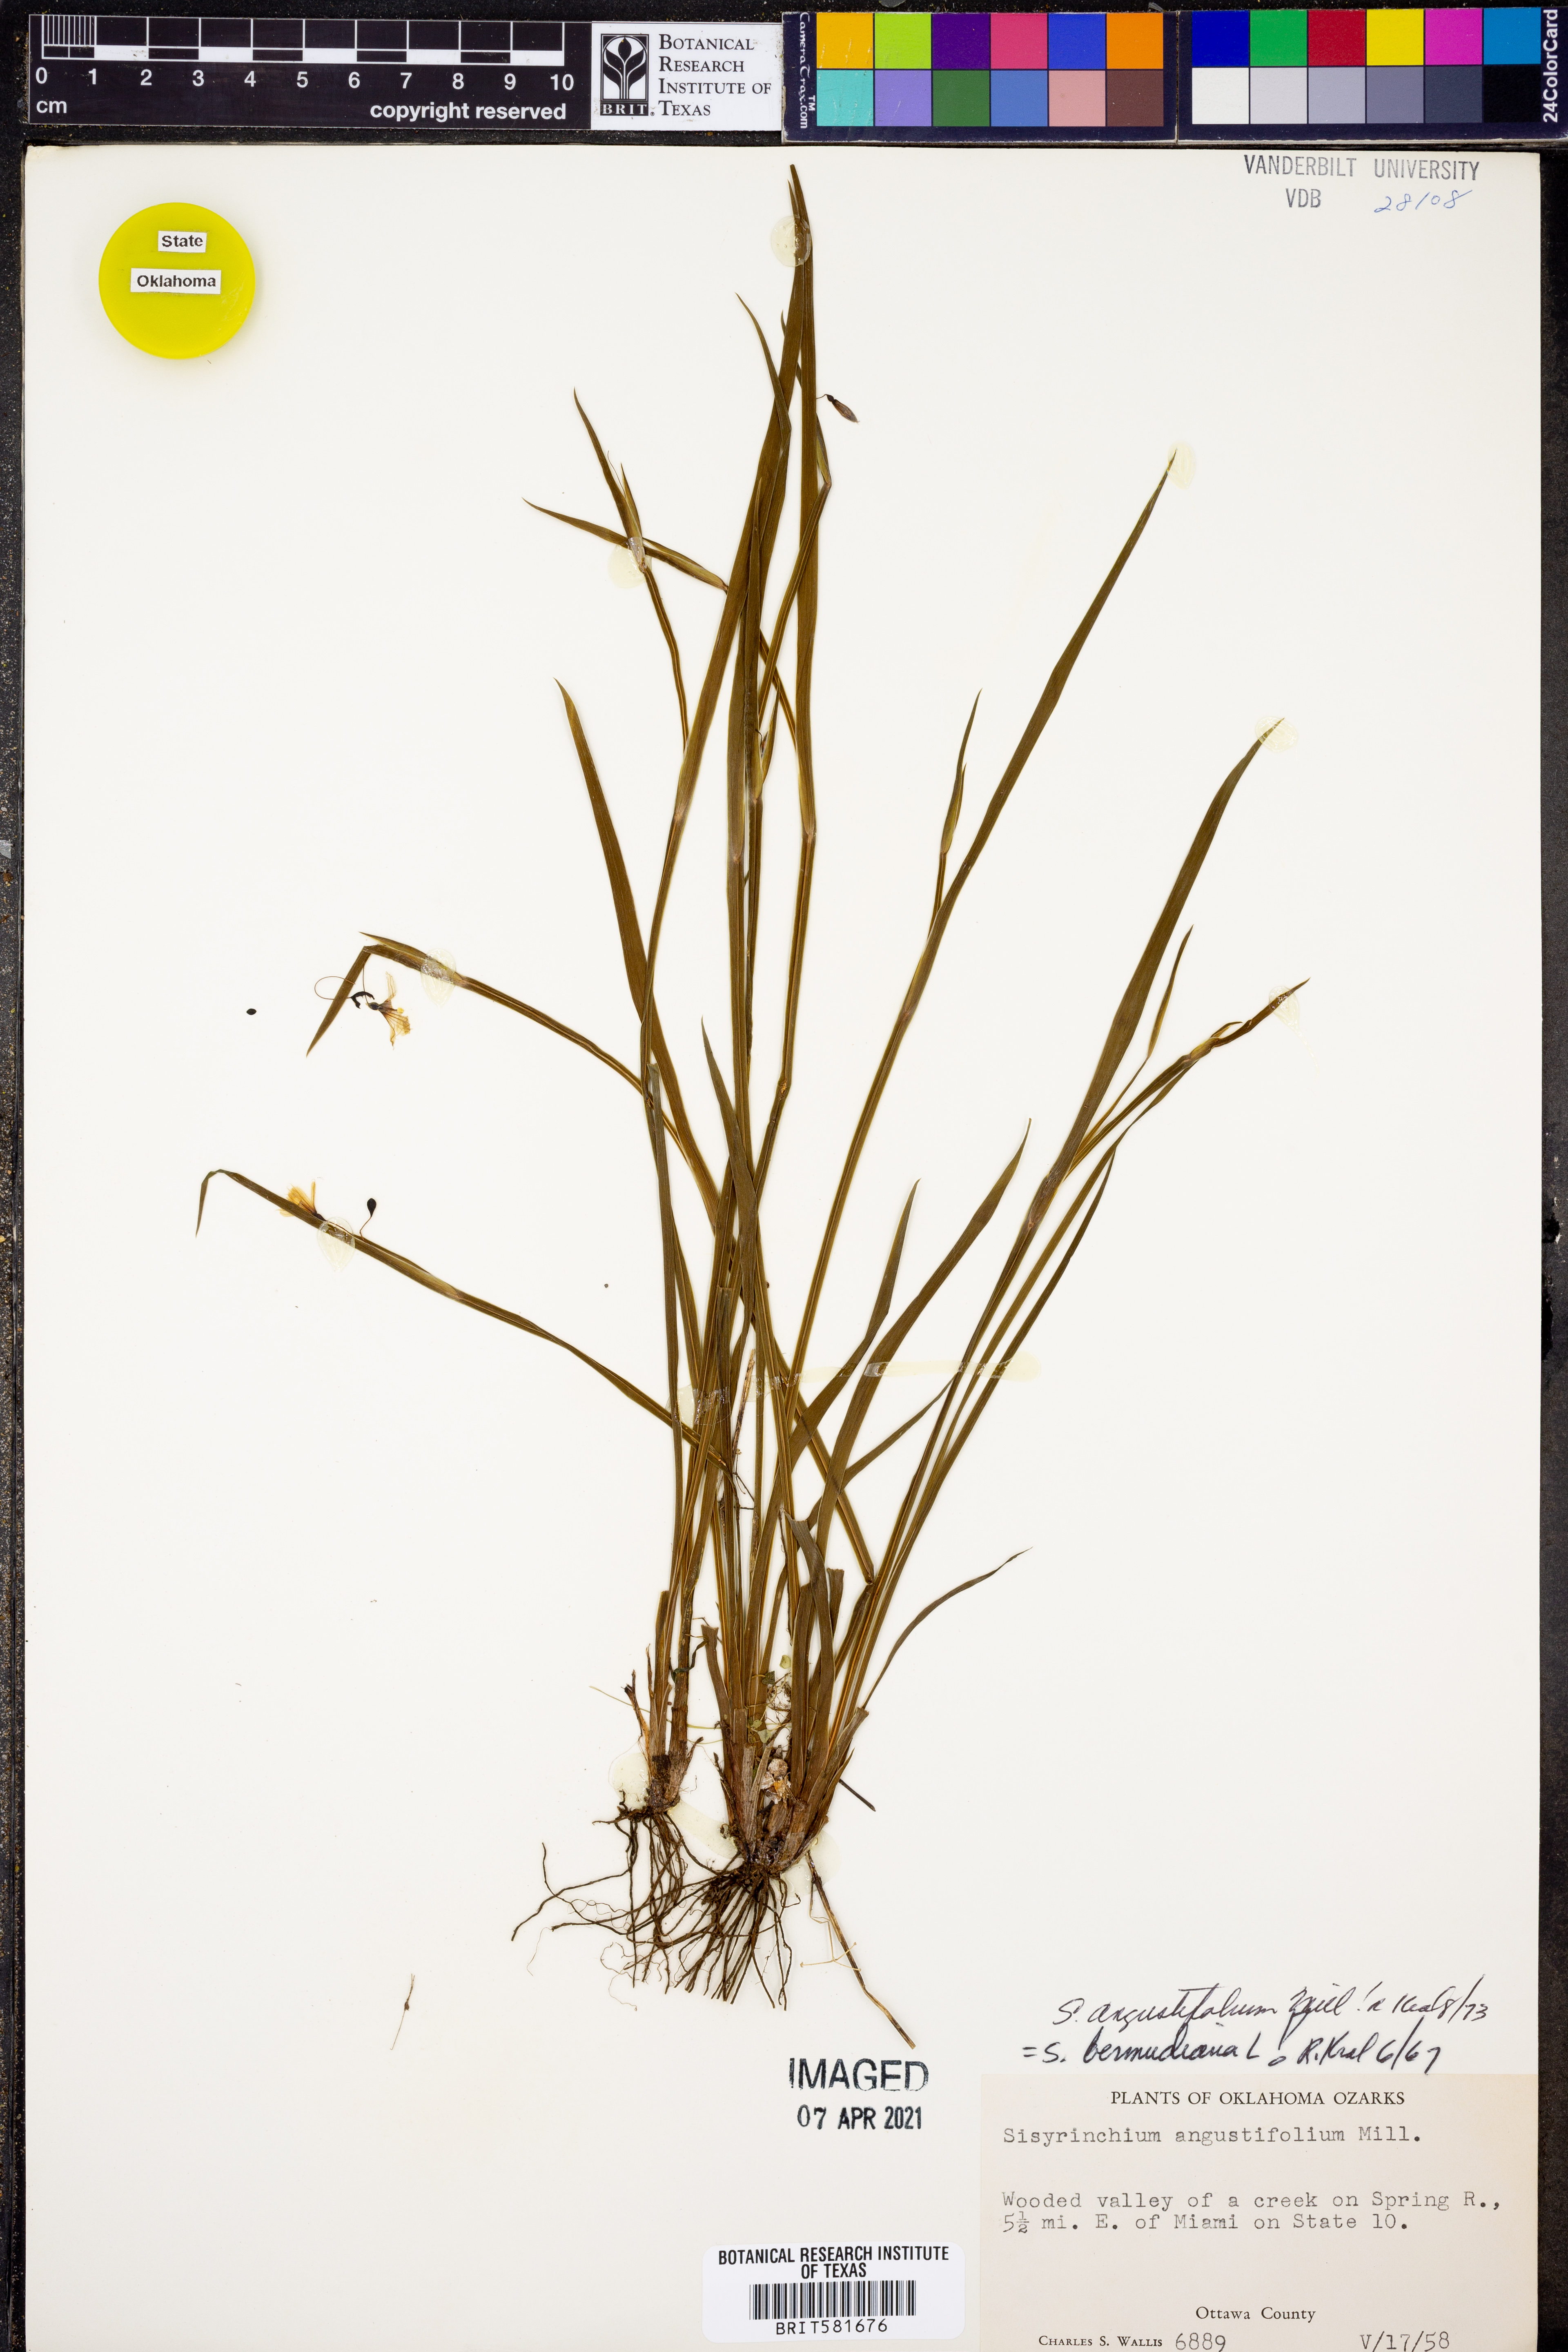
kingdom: Plantae
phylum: Tracheophyta
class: Liliopsida
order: Asparagales
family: Iridaceae
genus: Sisyrinchium
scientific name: Sisyrinchium angustifolium
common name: Narrow-leaf blue-eyed-grass
